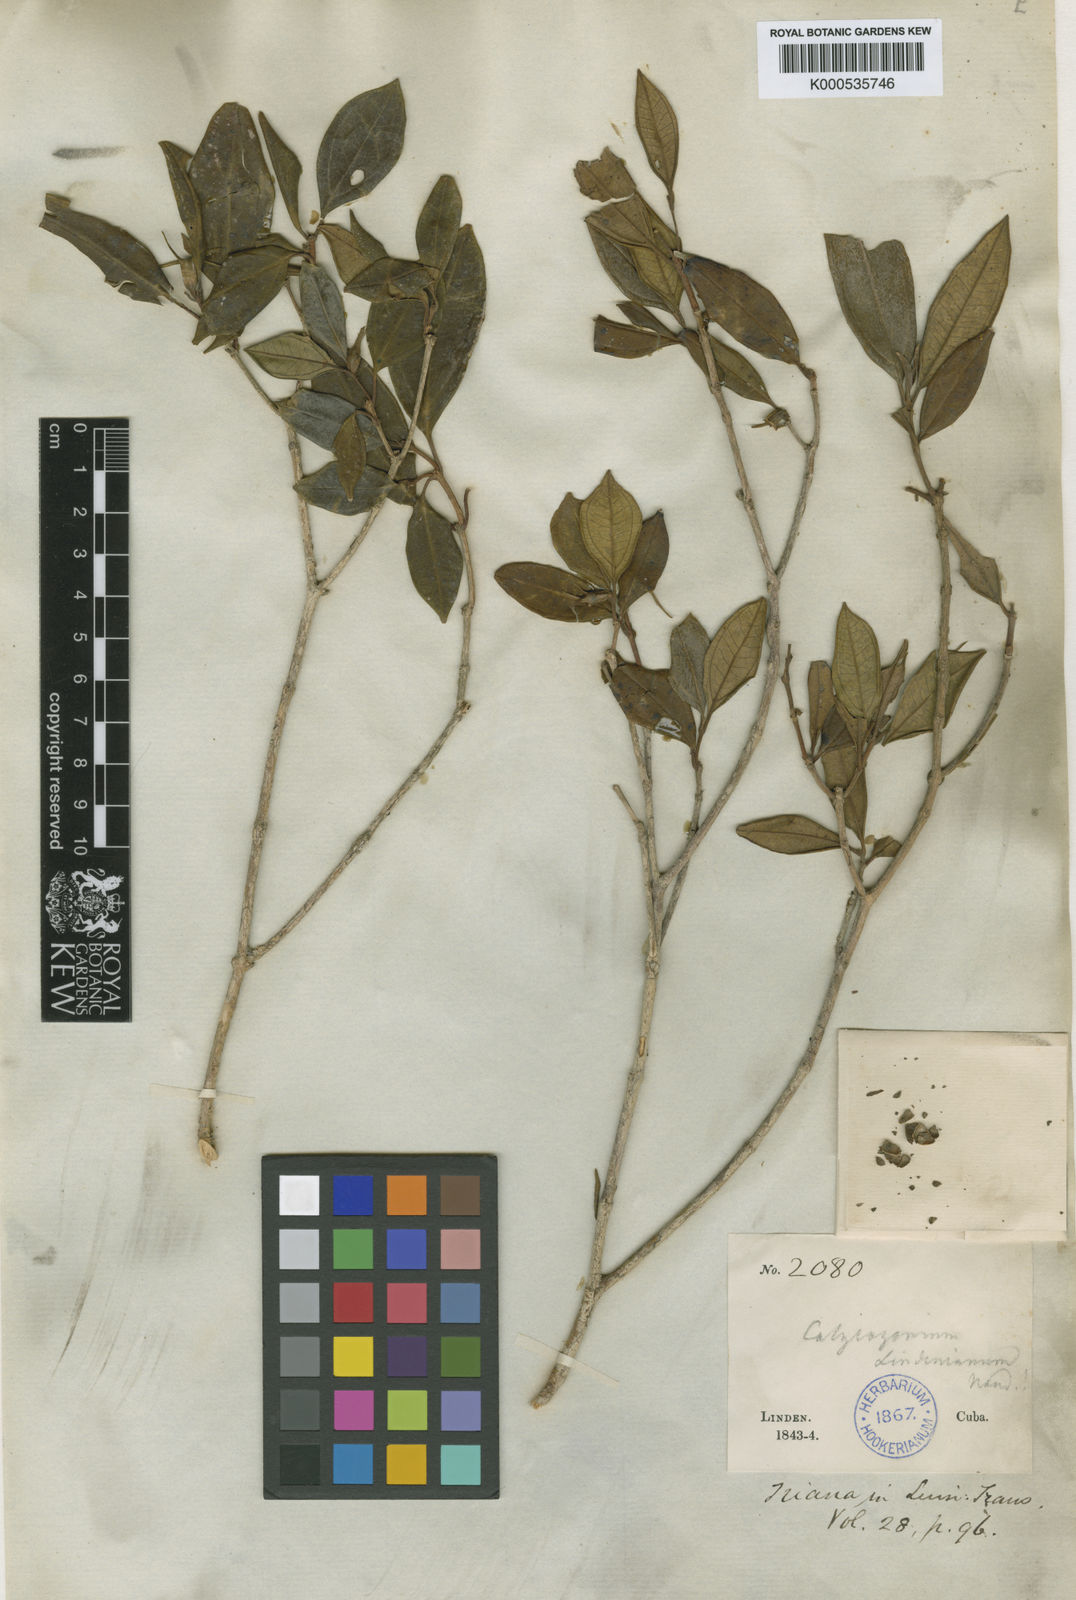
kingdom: Plantae
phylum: Tracheophyta
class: Magnoliopsida
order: Myrtales
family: Melastomataceae
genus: Miconia
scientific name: Miconia lindeniana
